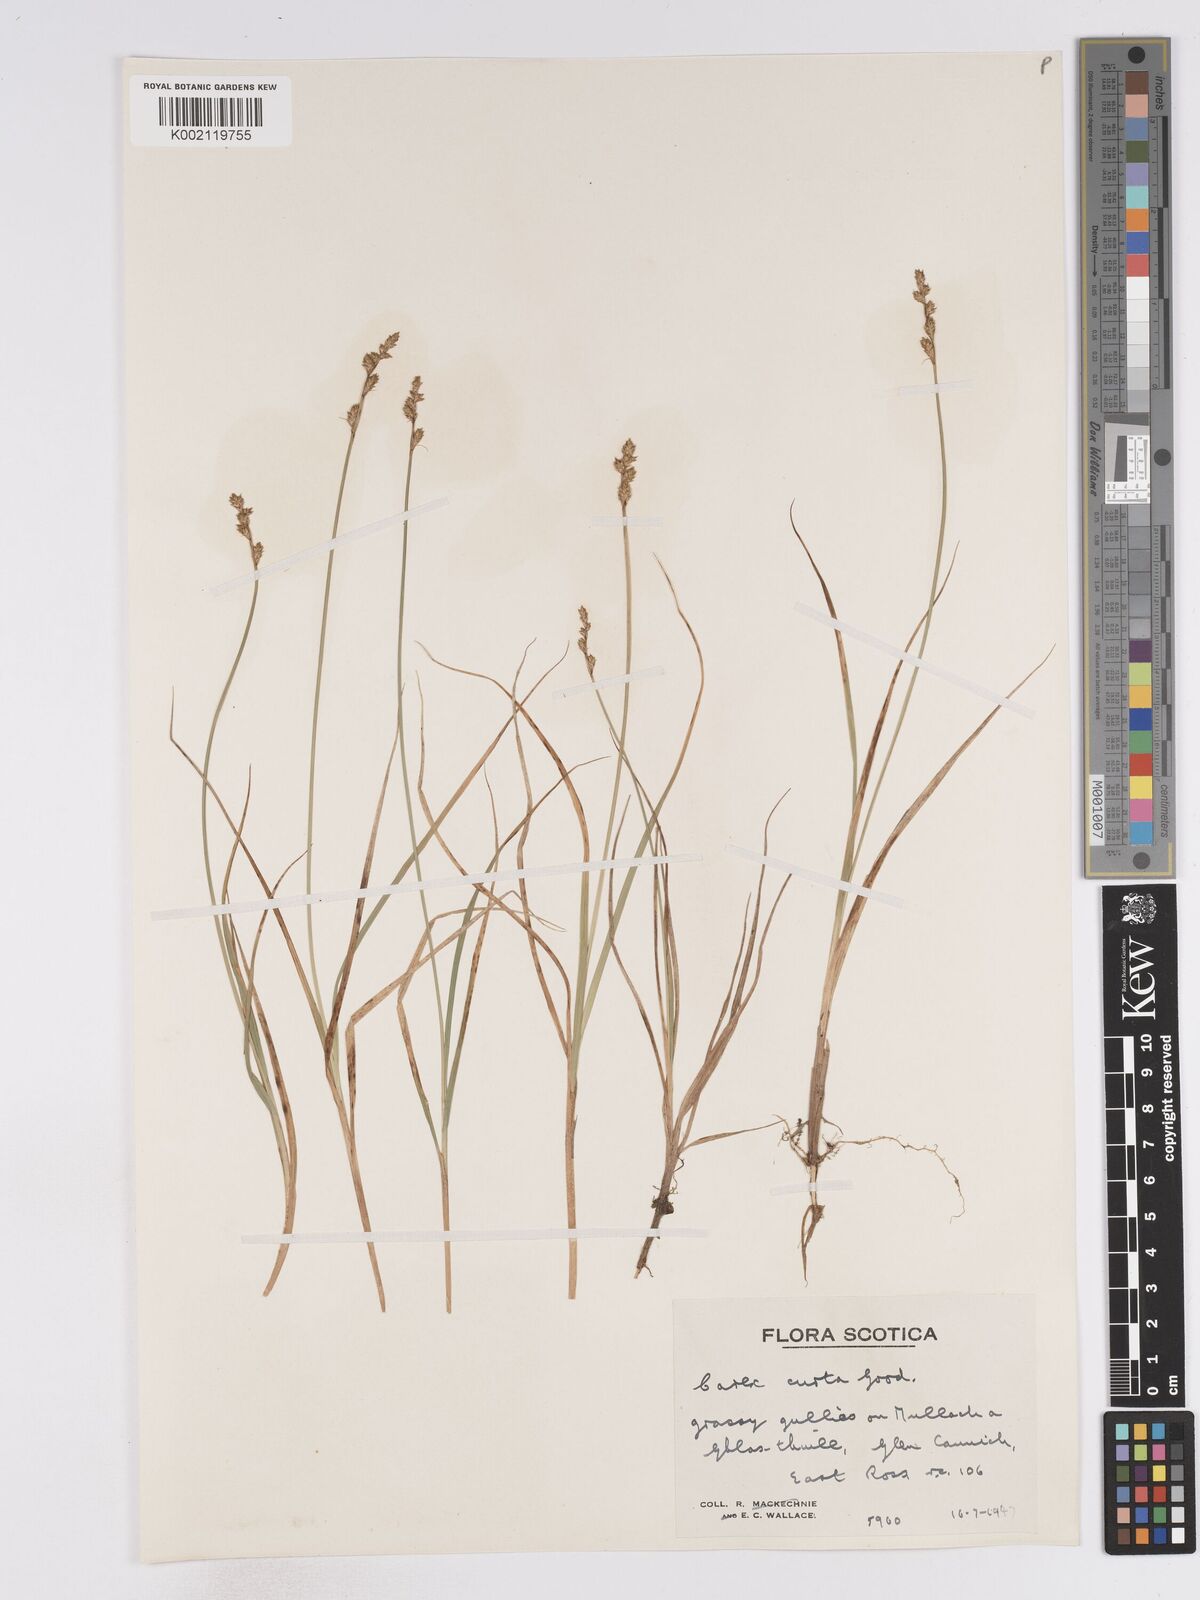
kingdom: Plantae
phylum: Tracheophyta
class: Liliopsida
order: Poales
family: Cyperaceae
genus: Carex
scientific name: Carex curta
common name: White sedge
